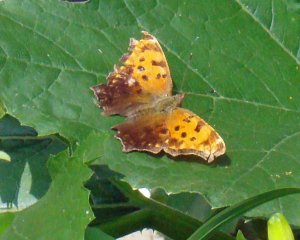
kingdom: Animalia
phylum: Arthropoda
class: Insecta
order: Lepidoptera
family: Nymphalidae
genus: Polygonia
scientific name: Polygonia comma
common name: Eastern Comma
